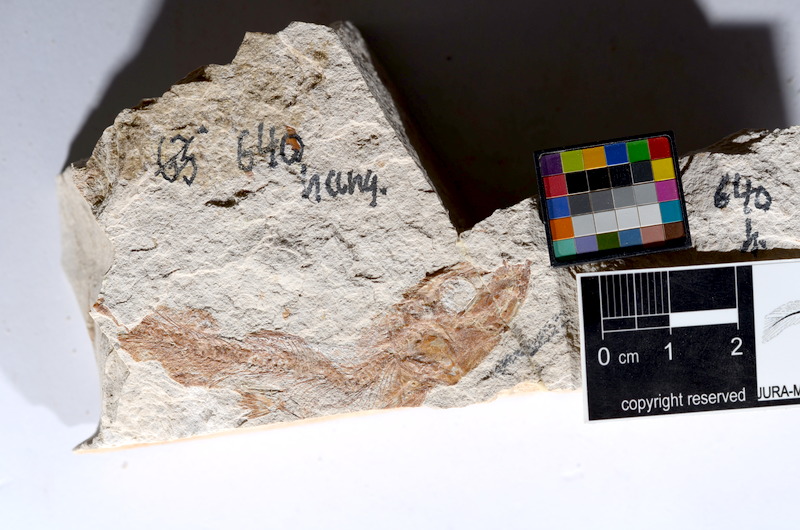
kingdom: Animalia
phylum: Chordata
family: Ascalaboidae
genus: Tharsis
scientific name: Tharsis dubius
